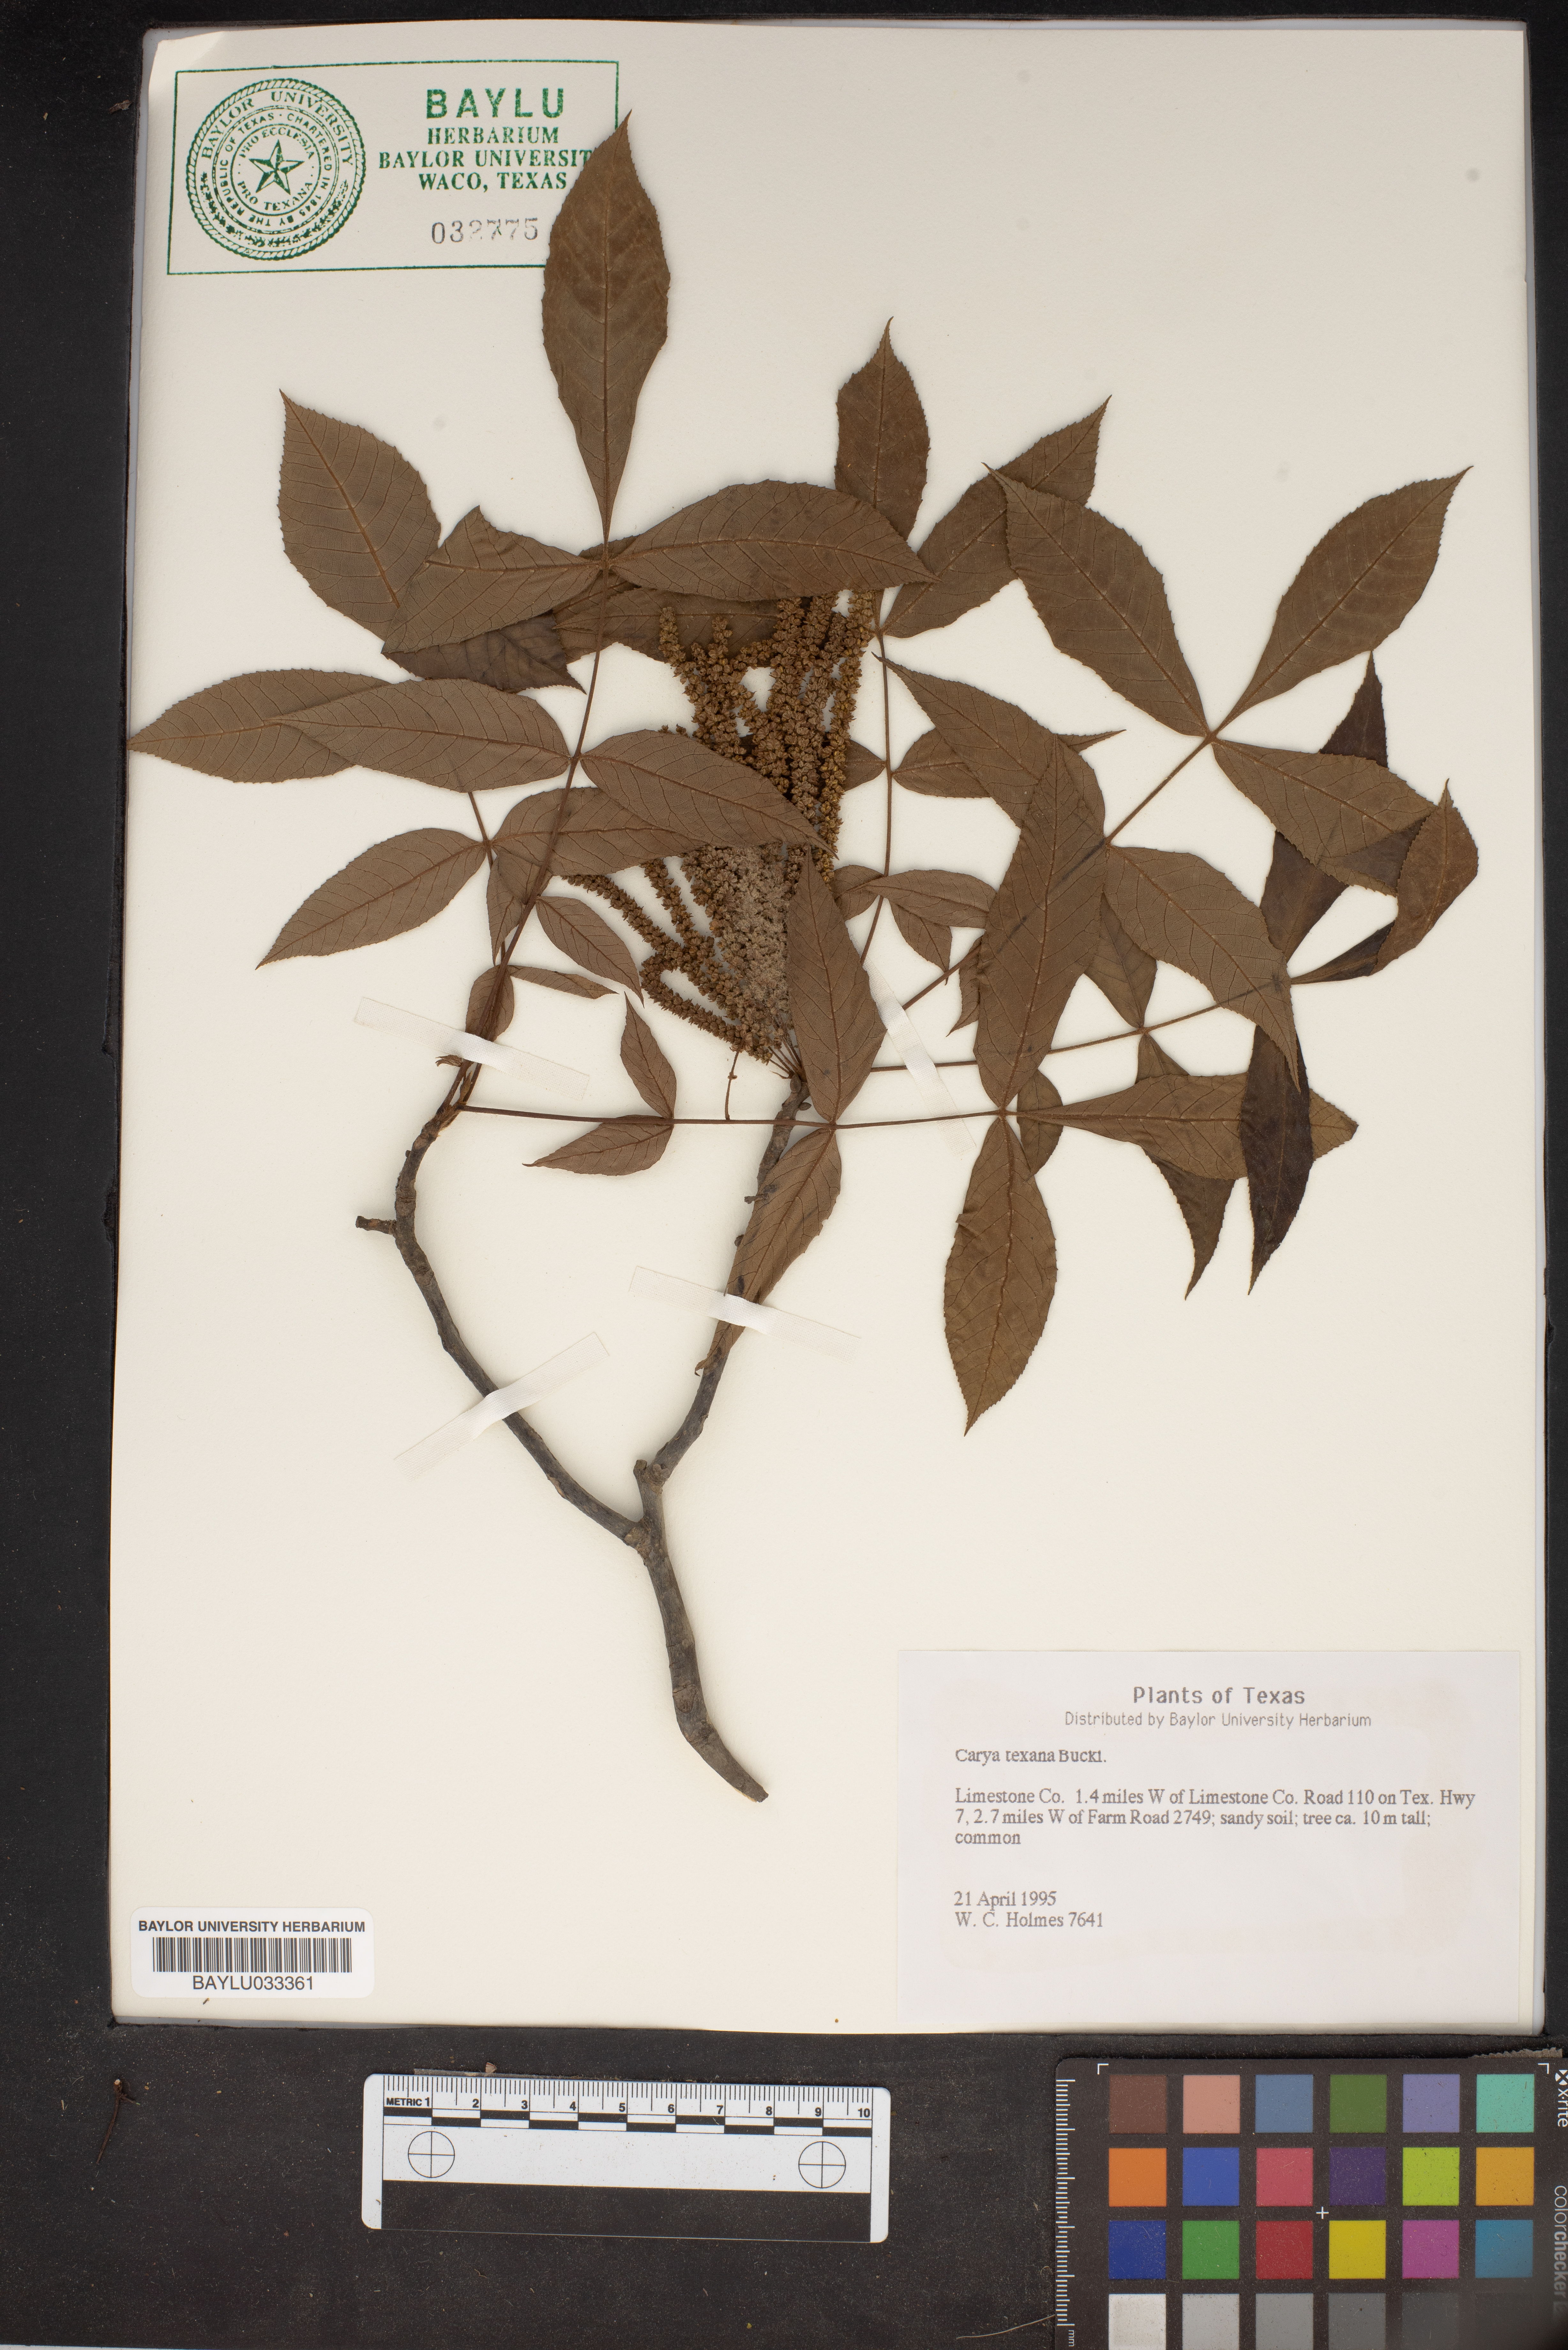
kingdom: Plantae
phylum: Tracheophyta
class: Magnoliopsida
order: Fagales
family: Juglandaceae
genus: Carya
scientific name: Carya texana
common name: Black hickory
